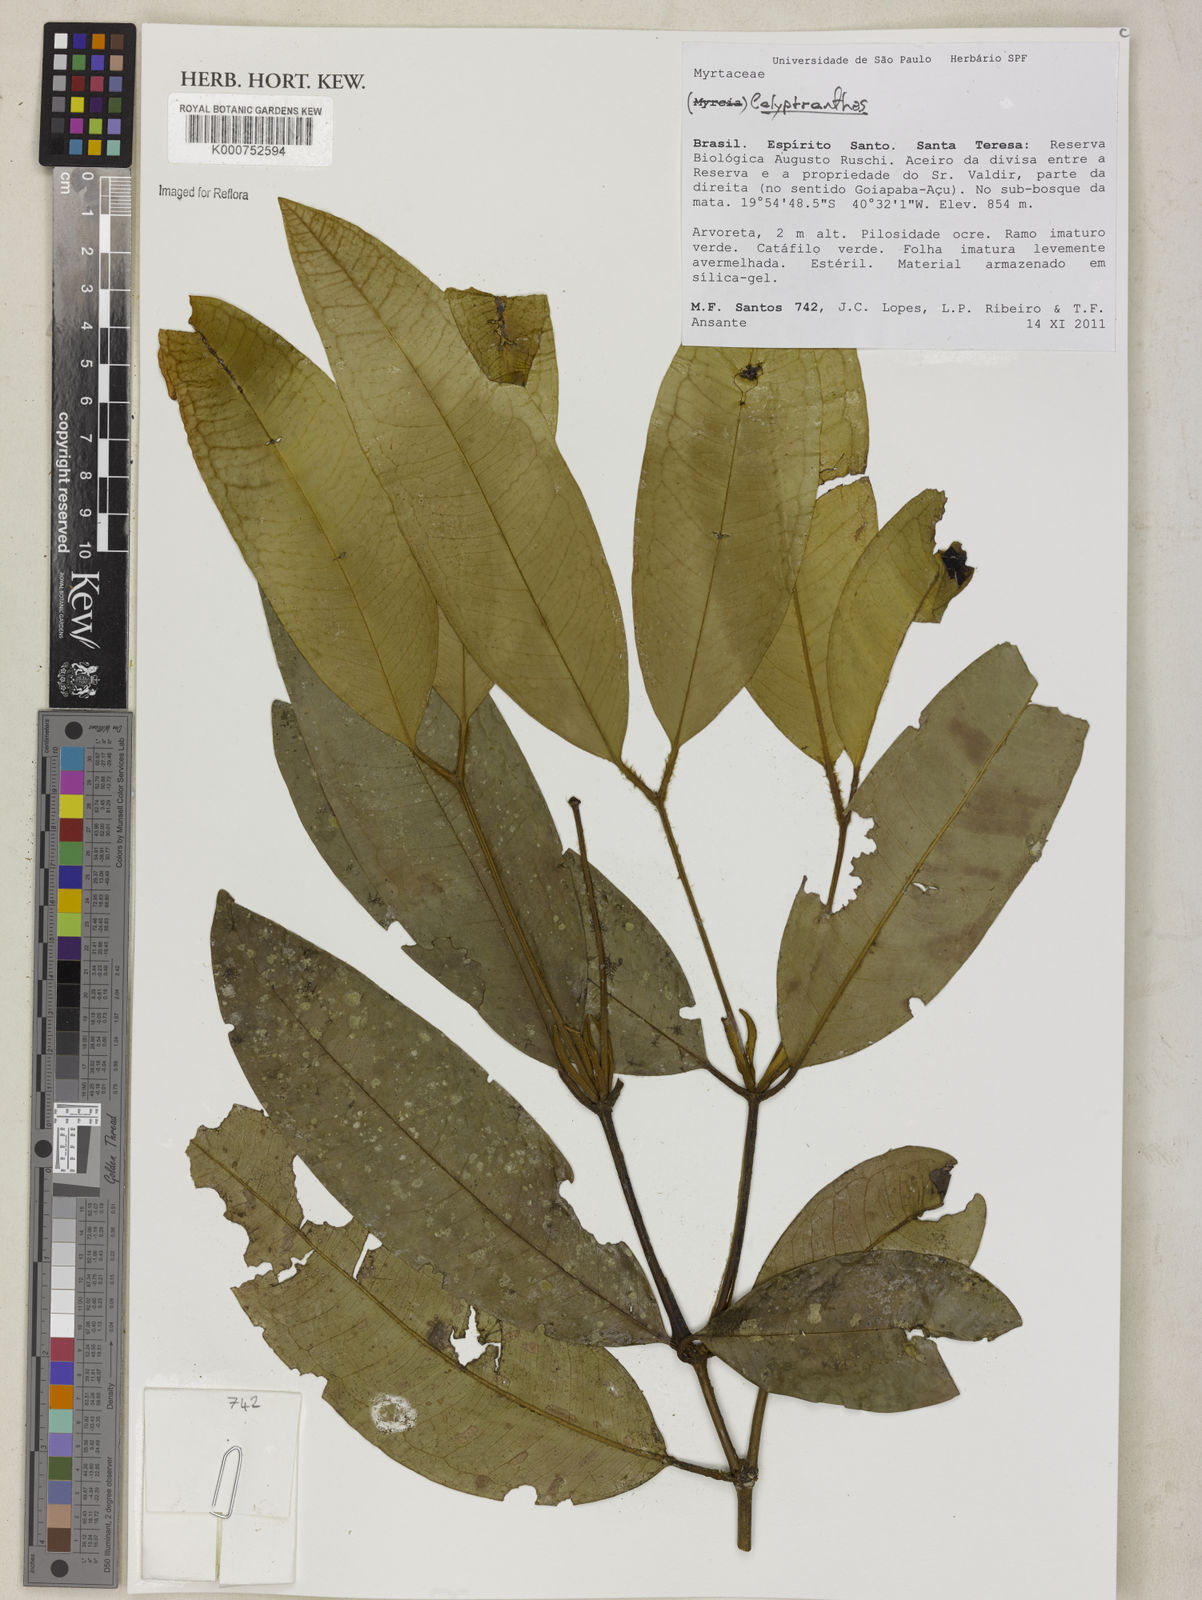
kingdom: Plantae
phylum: Tracheophyta
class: Magnoliopsida
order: Myrtales
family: Myrtaceae
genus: Calyptranthes
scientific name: Calyptranthes
